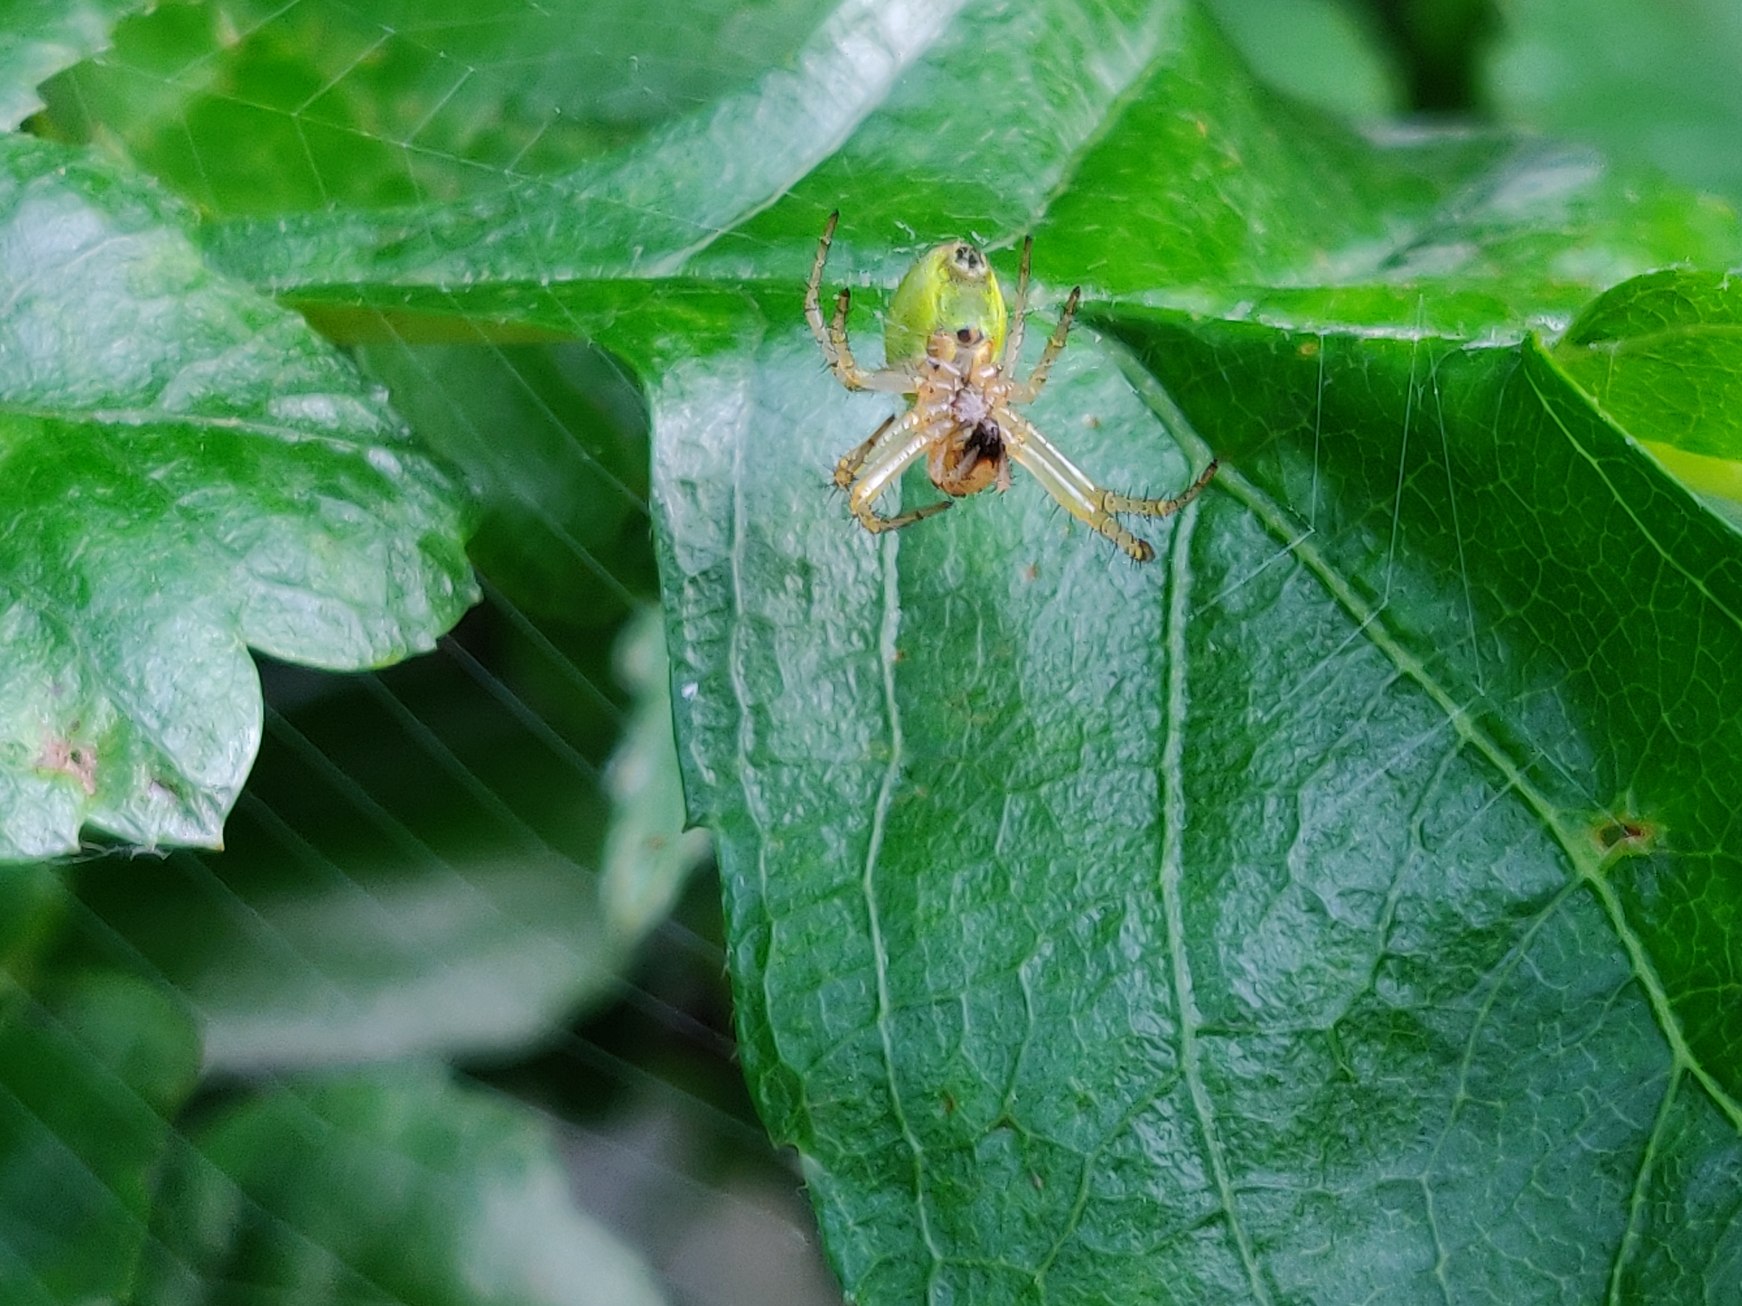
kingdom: Animalia
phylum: Arthropoda
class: Arachnida
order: Araneae
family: Araneidae
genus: Araniella
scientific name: Araniella
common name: Agurkeedderkopslægten
